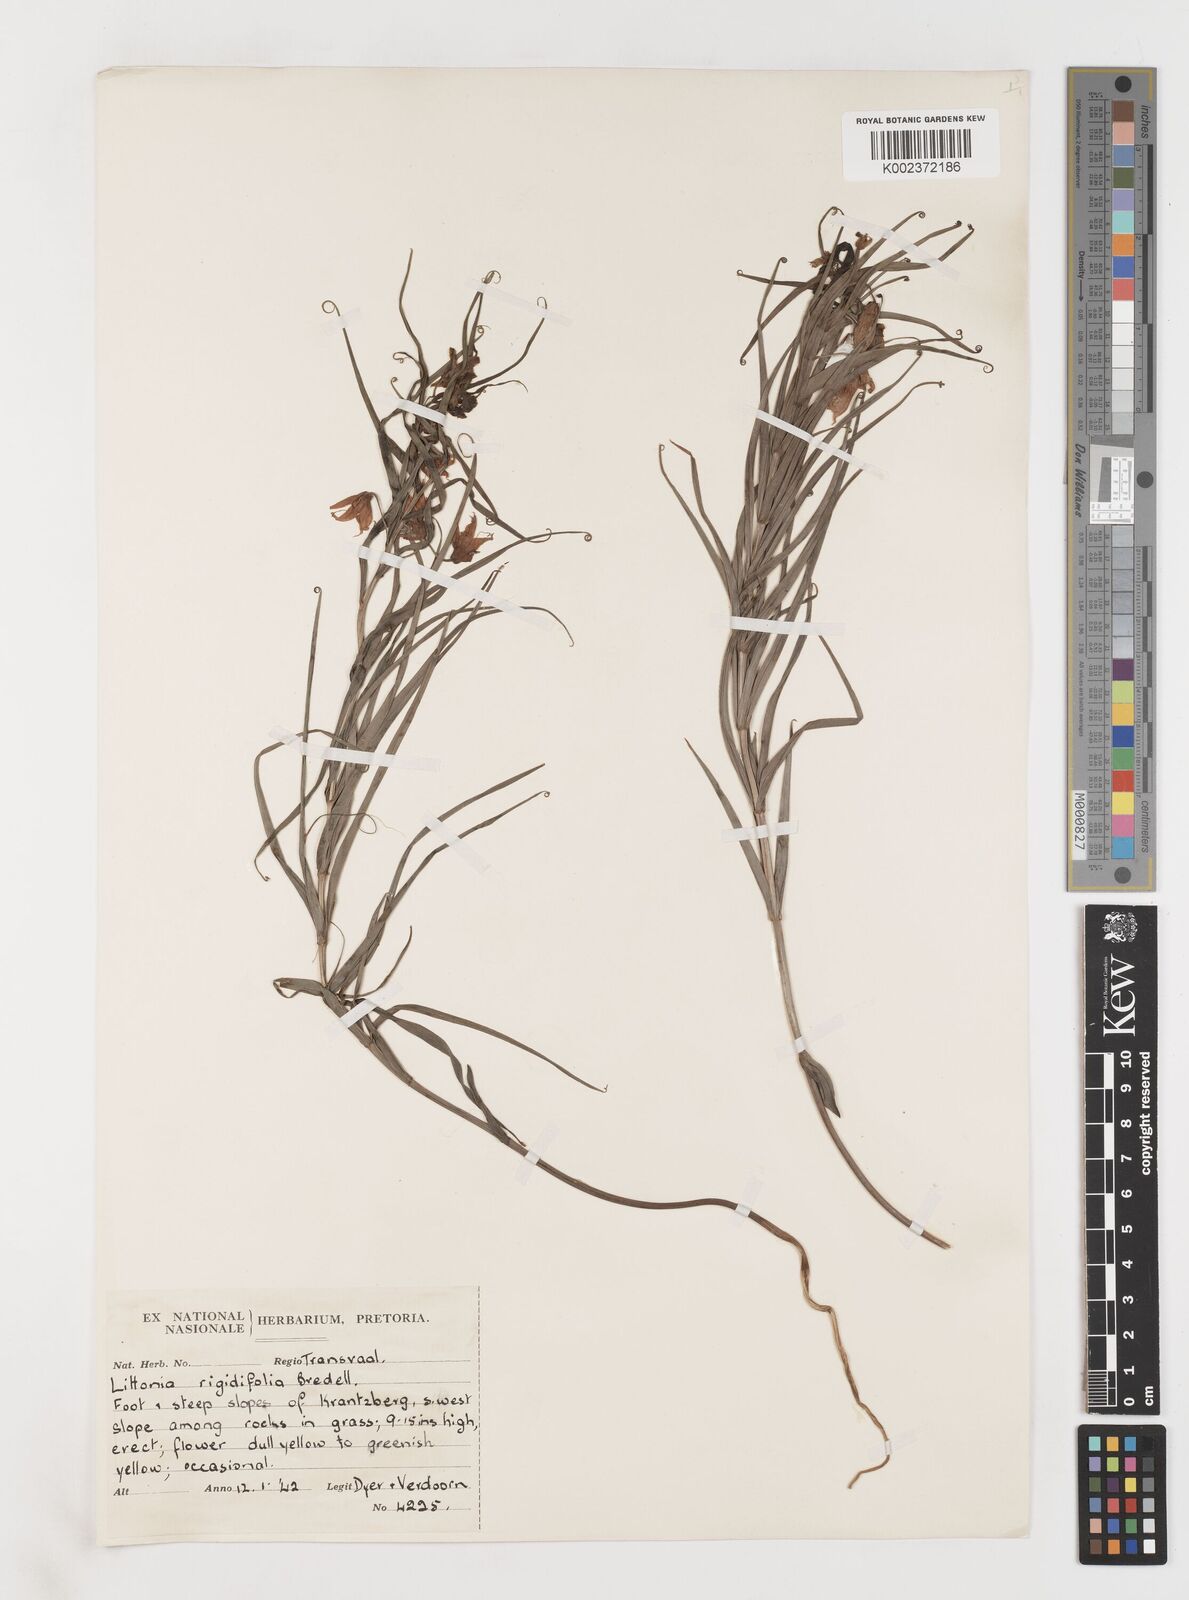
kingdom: Plantae
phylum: Tracheophyta
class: Liliopsida
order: Liliales
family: Colchicaceae
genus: Gloriosa
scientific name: Gloriosa rigidifolia
